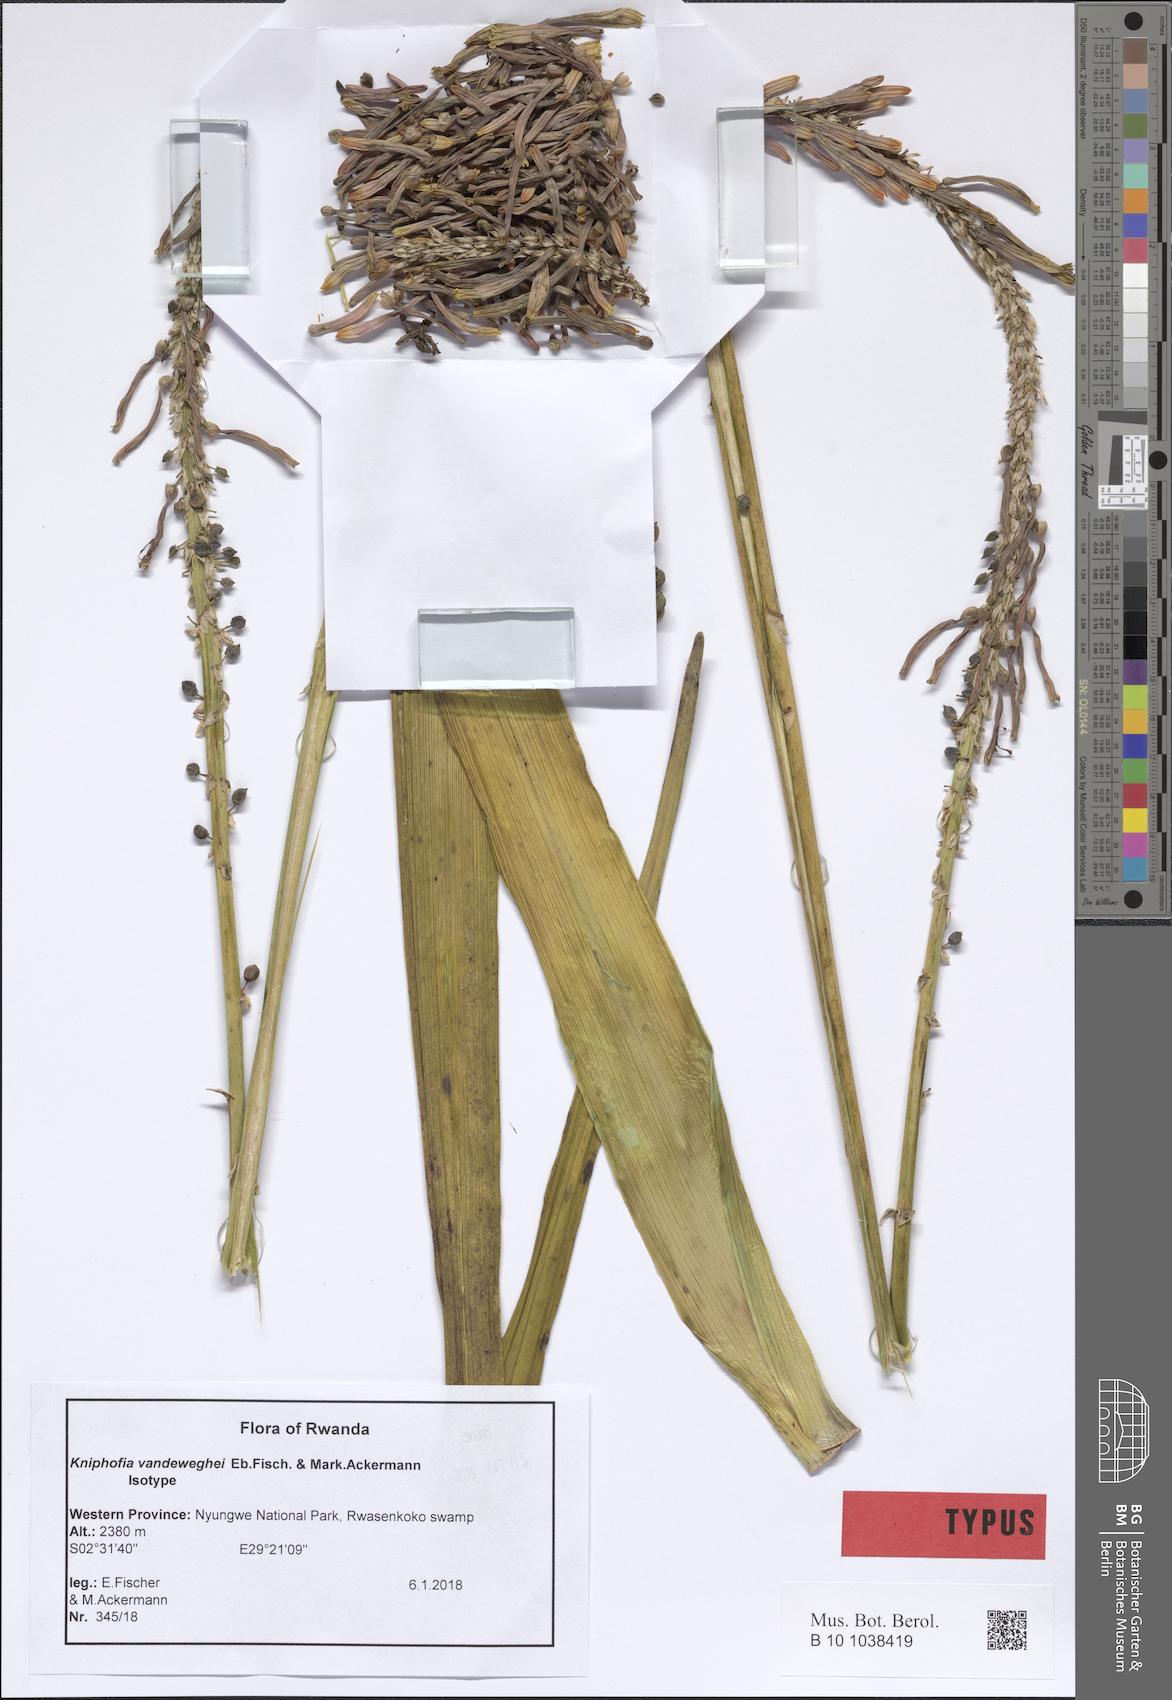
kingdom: Plantae
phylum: Tracheophyta
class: Liliopsida
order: Asparagales
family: Asphodelaceae
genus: Kniphofia
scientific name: Kniphofia vandeweghei
